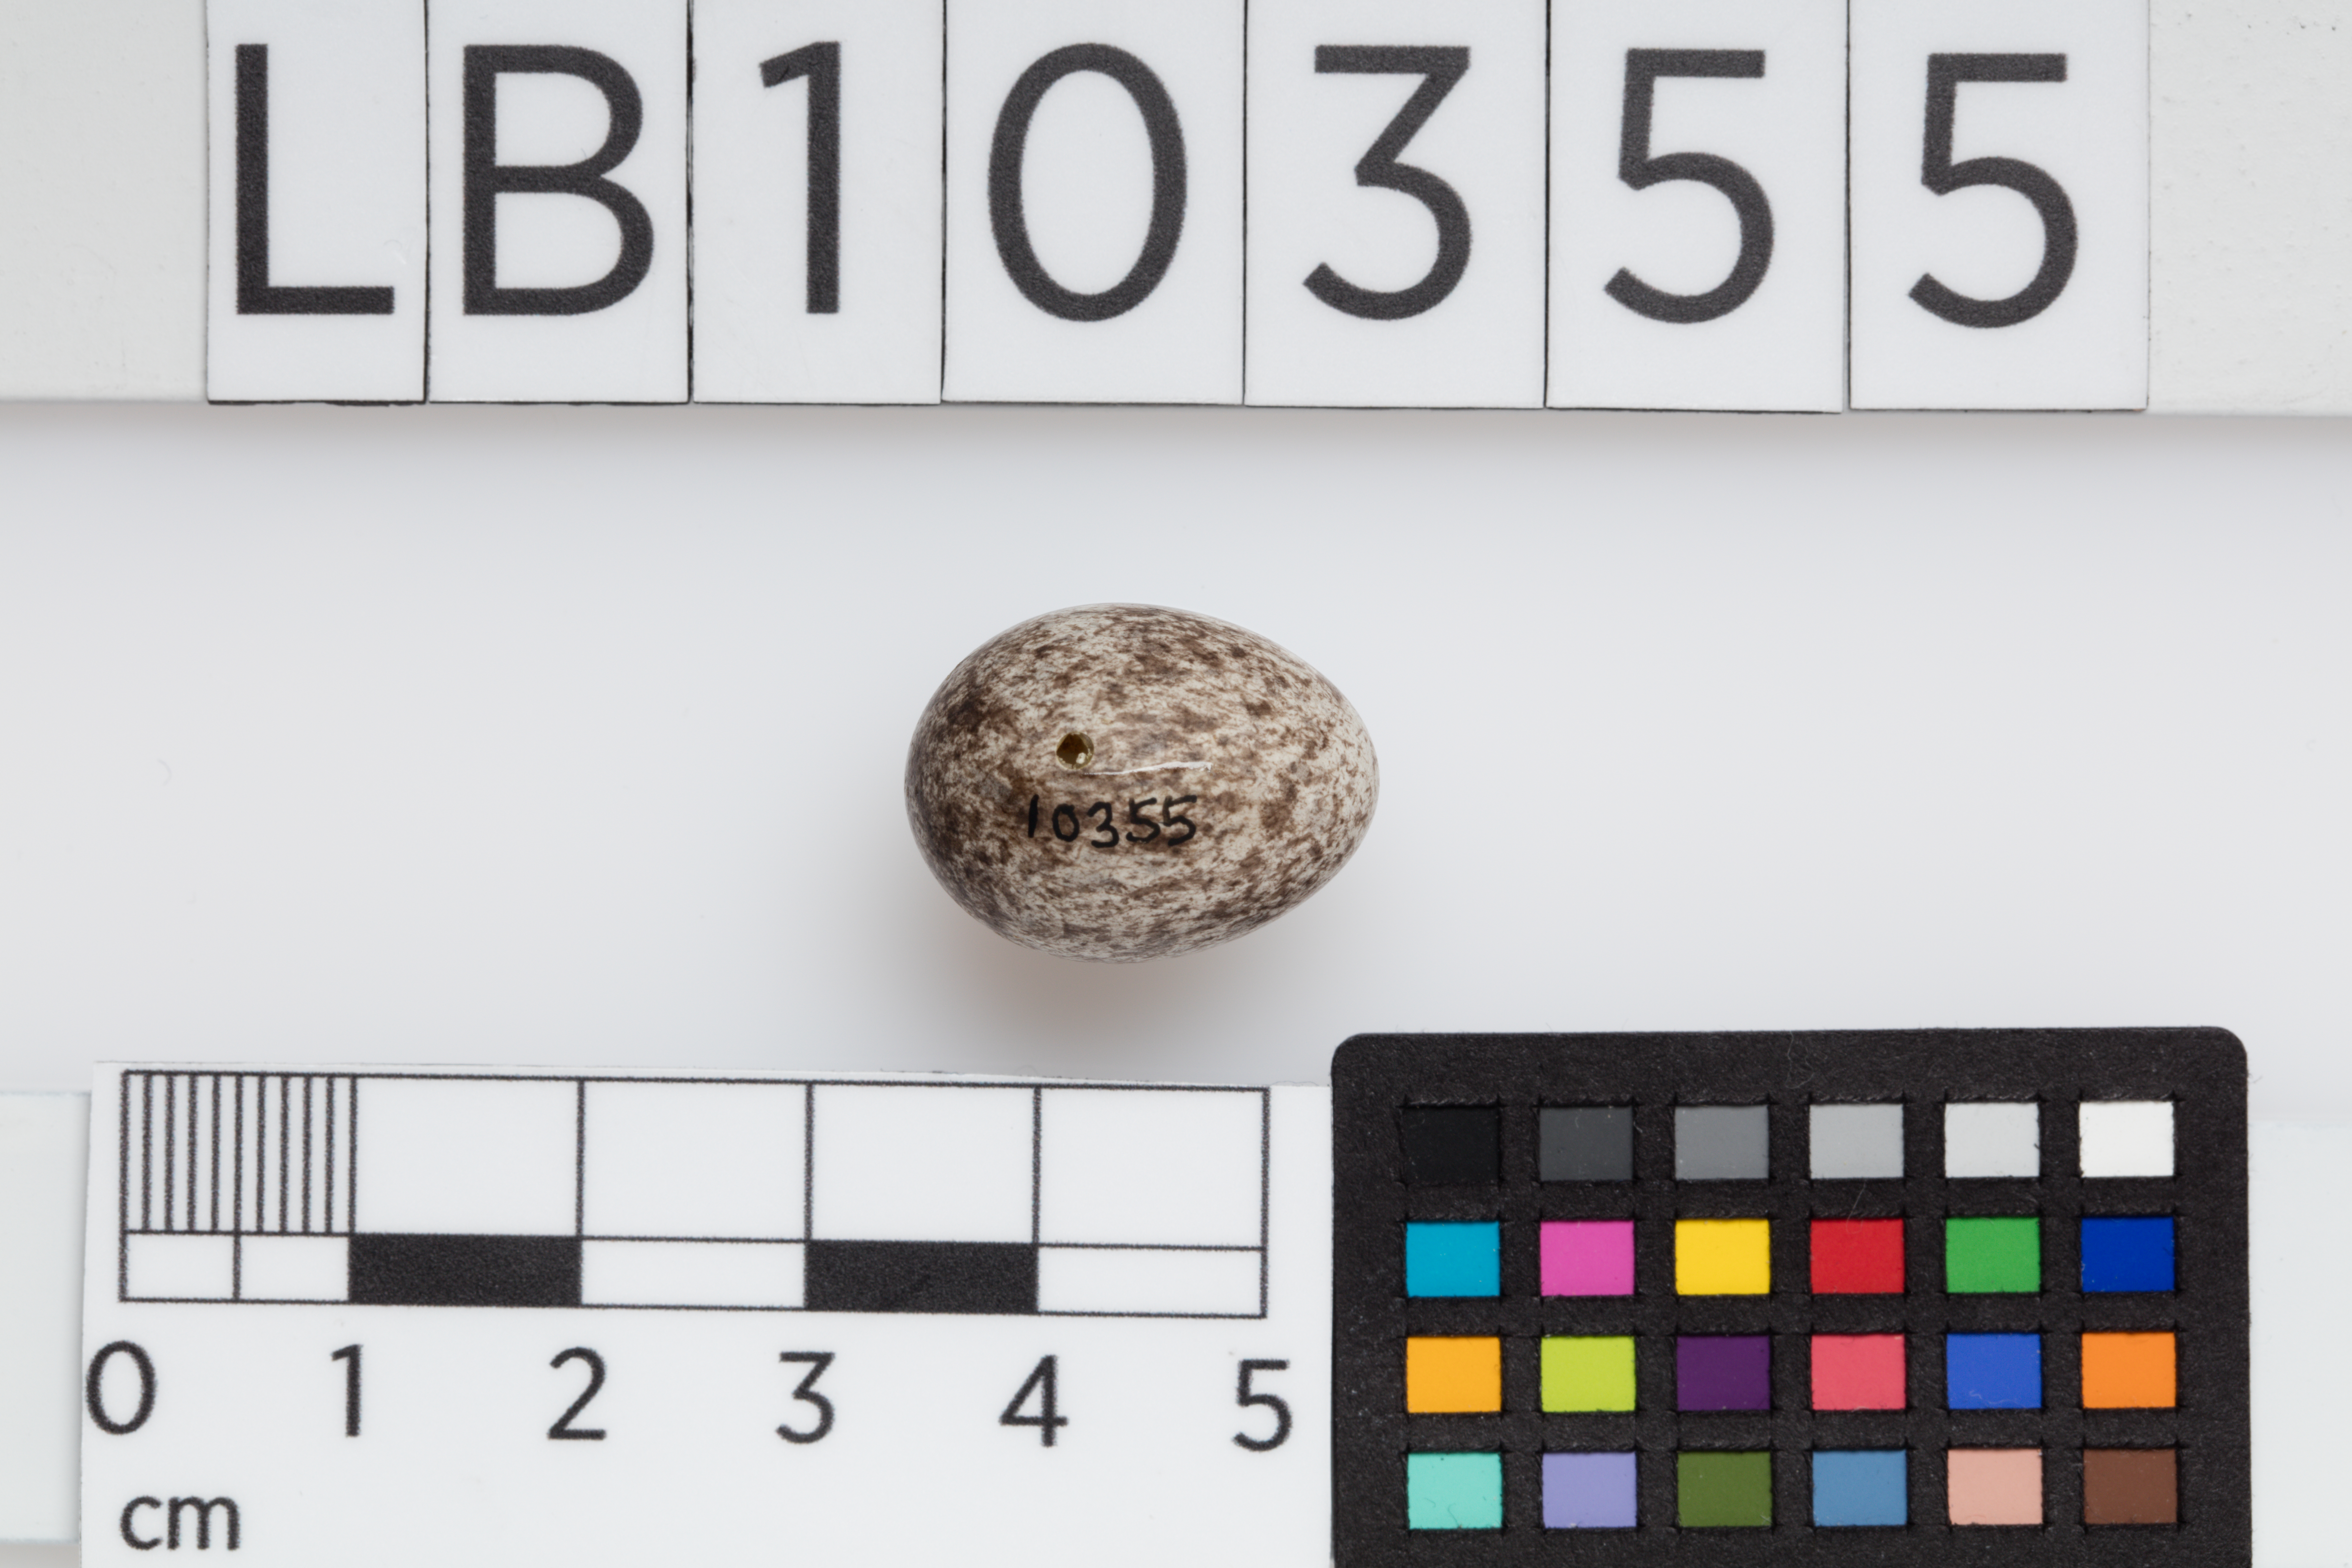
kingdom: Animalia
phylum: Chordata
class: Aves
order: Passeriformes
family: Passeridae
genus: Passer
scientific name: Passer domesticus
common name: House sparrow
